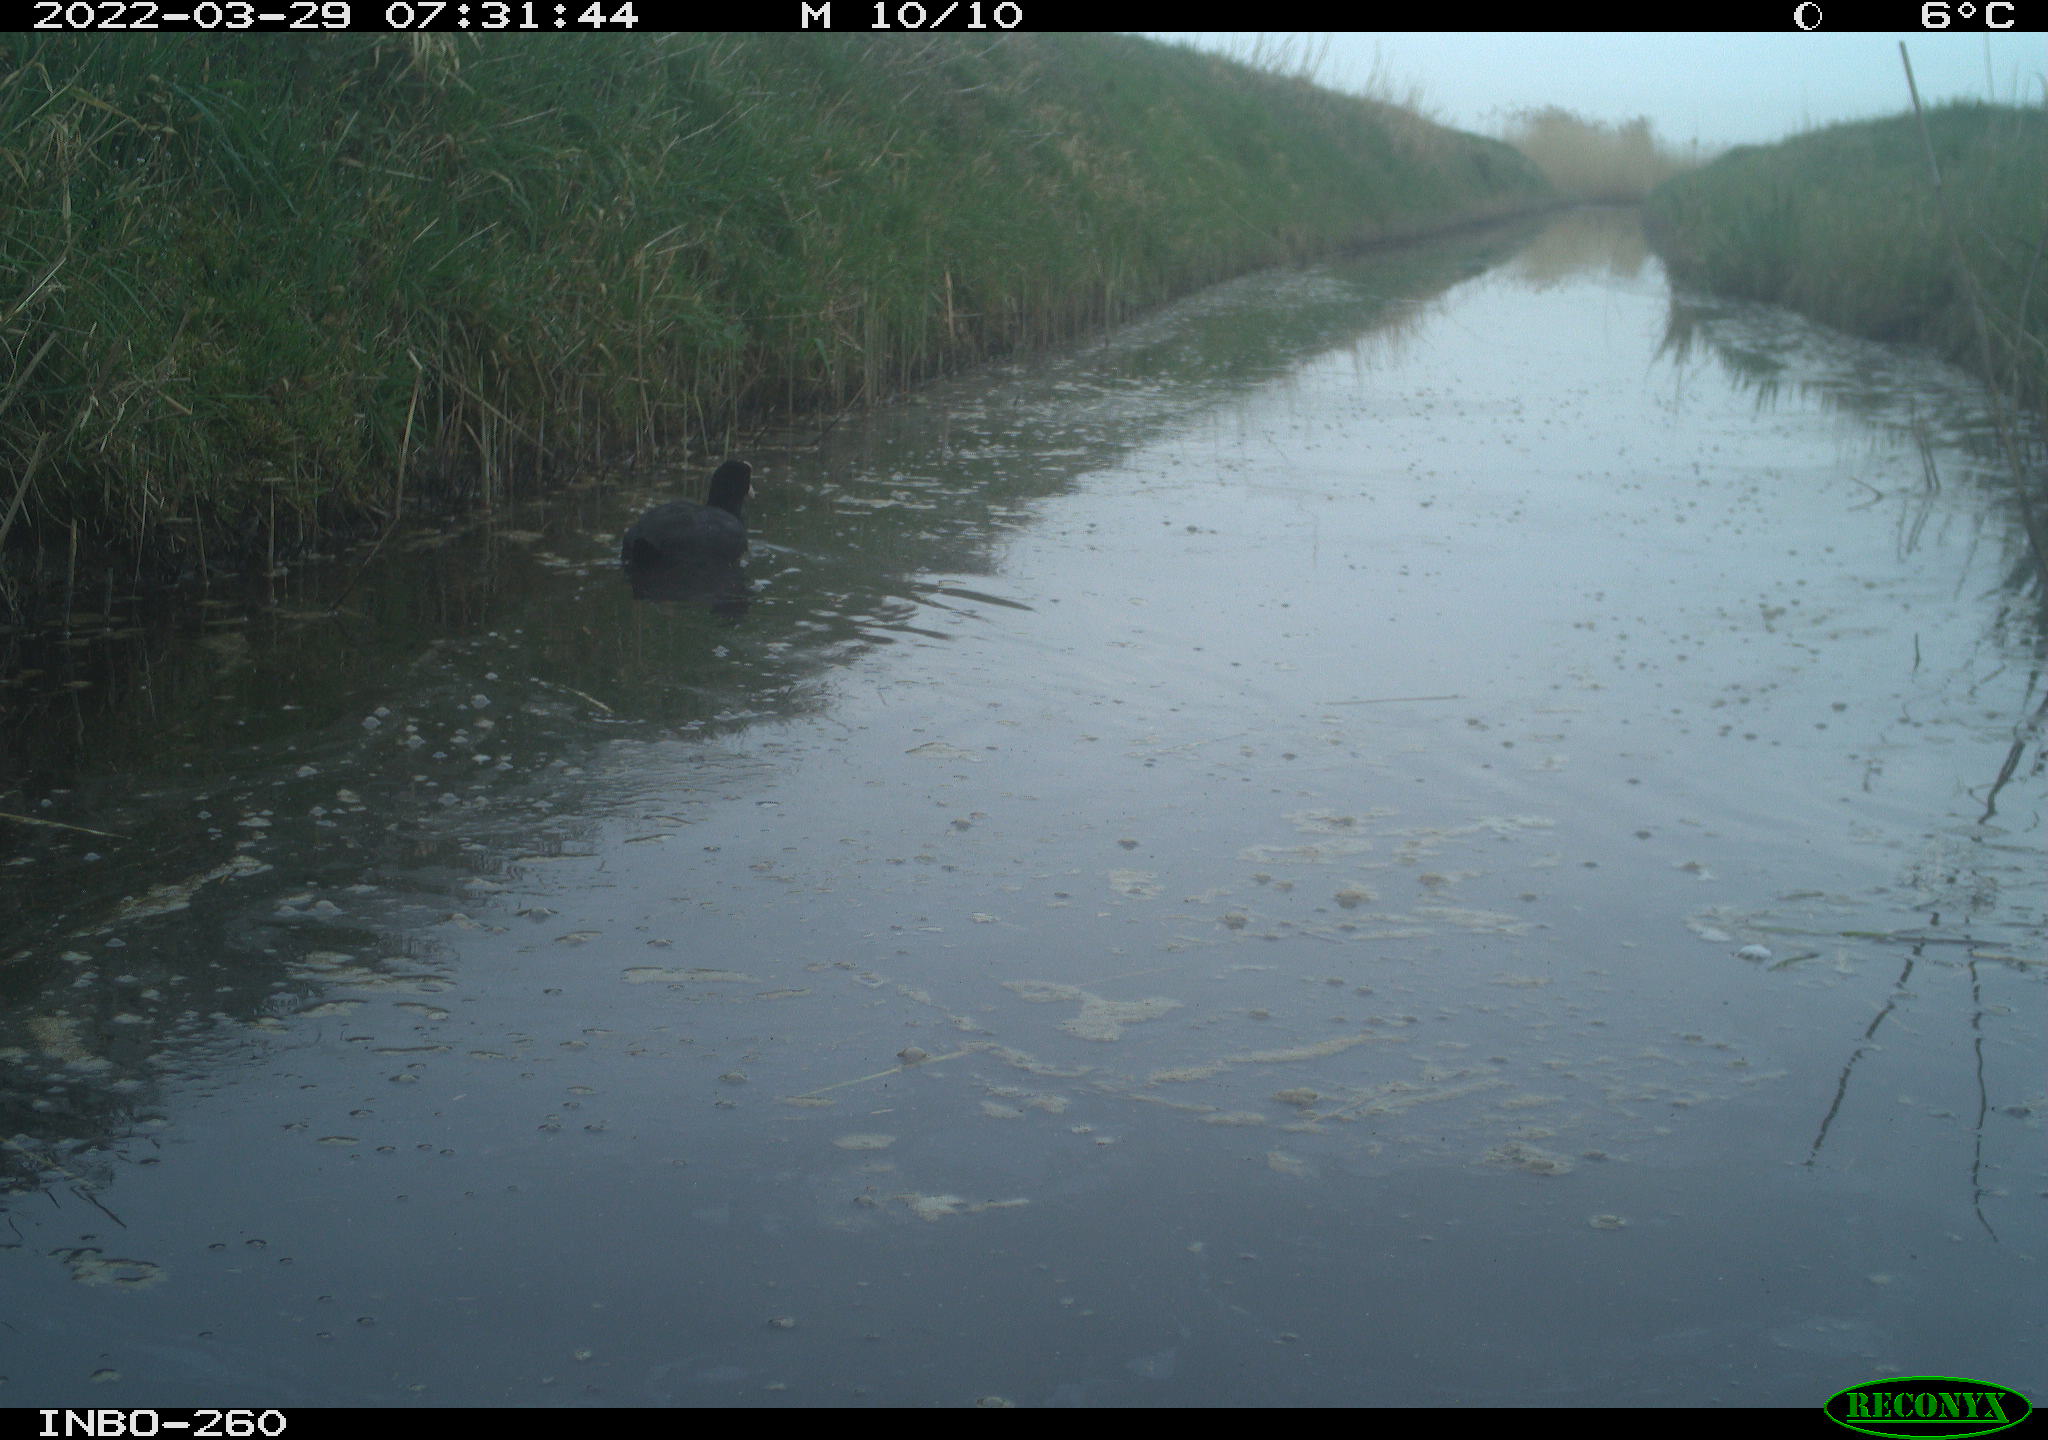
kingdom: Animalia
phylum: Chordata
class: Aves
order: Gruiformes
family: Rallidae
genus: Fulica
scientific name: Fulica atra
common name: Eurasian coot
